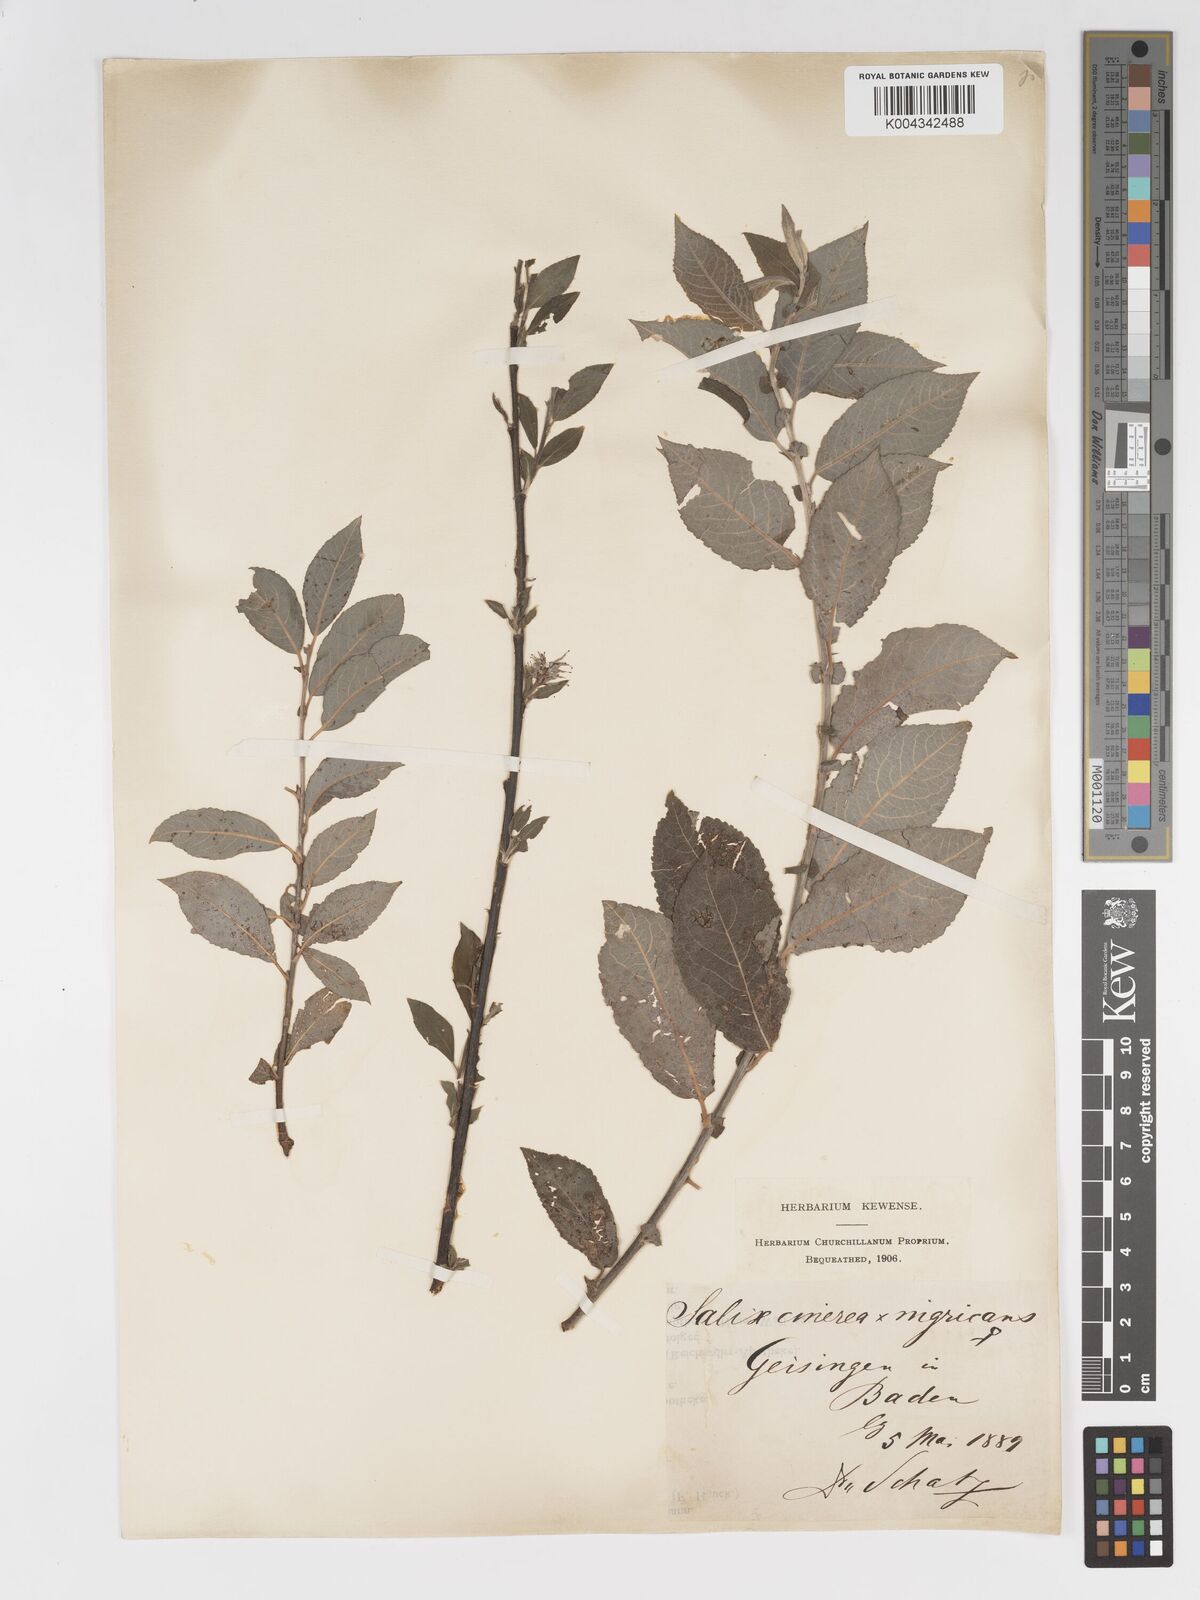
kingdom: Plantae
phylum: Tracheophyta
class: Magnoliopsida
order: Malpighiales
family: Salicaceae
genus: Salix
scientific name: Salix
